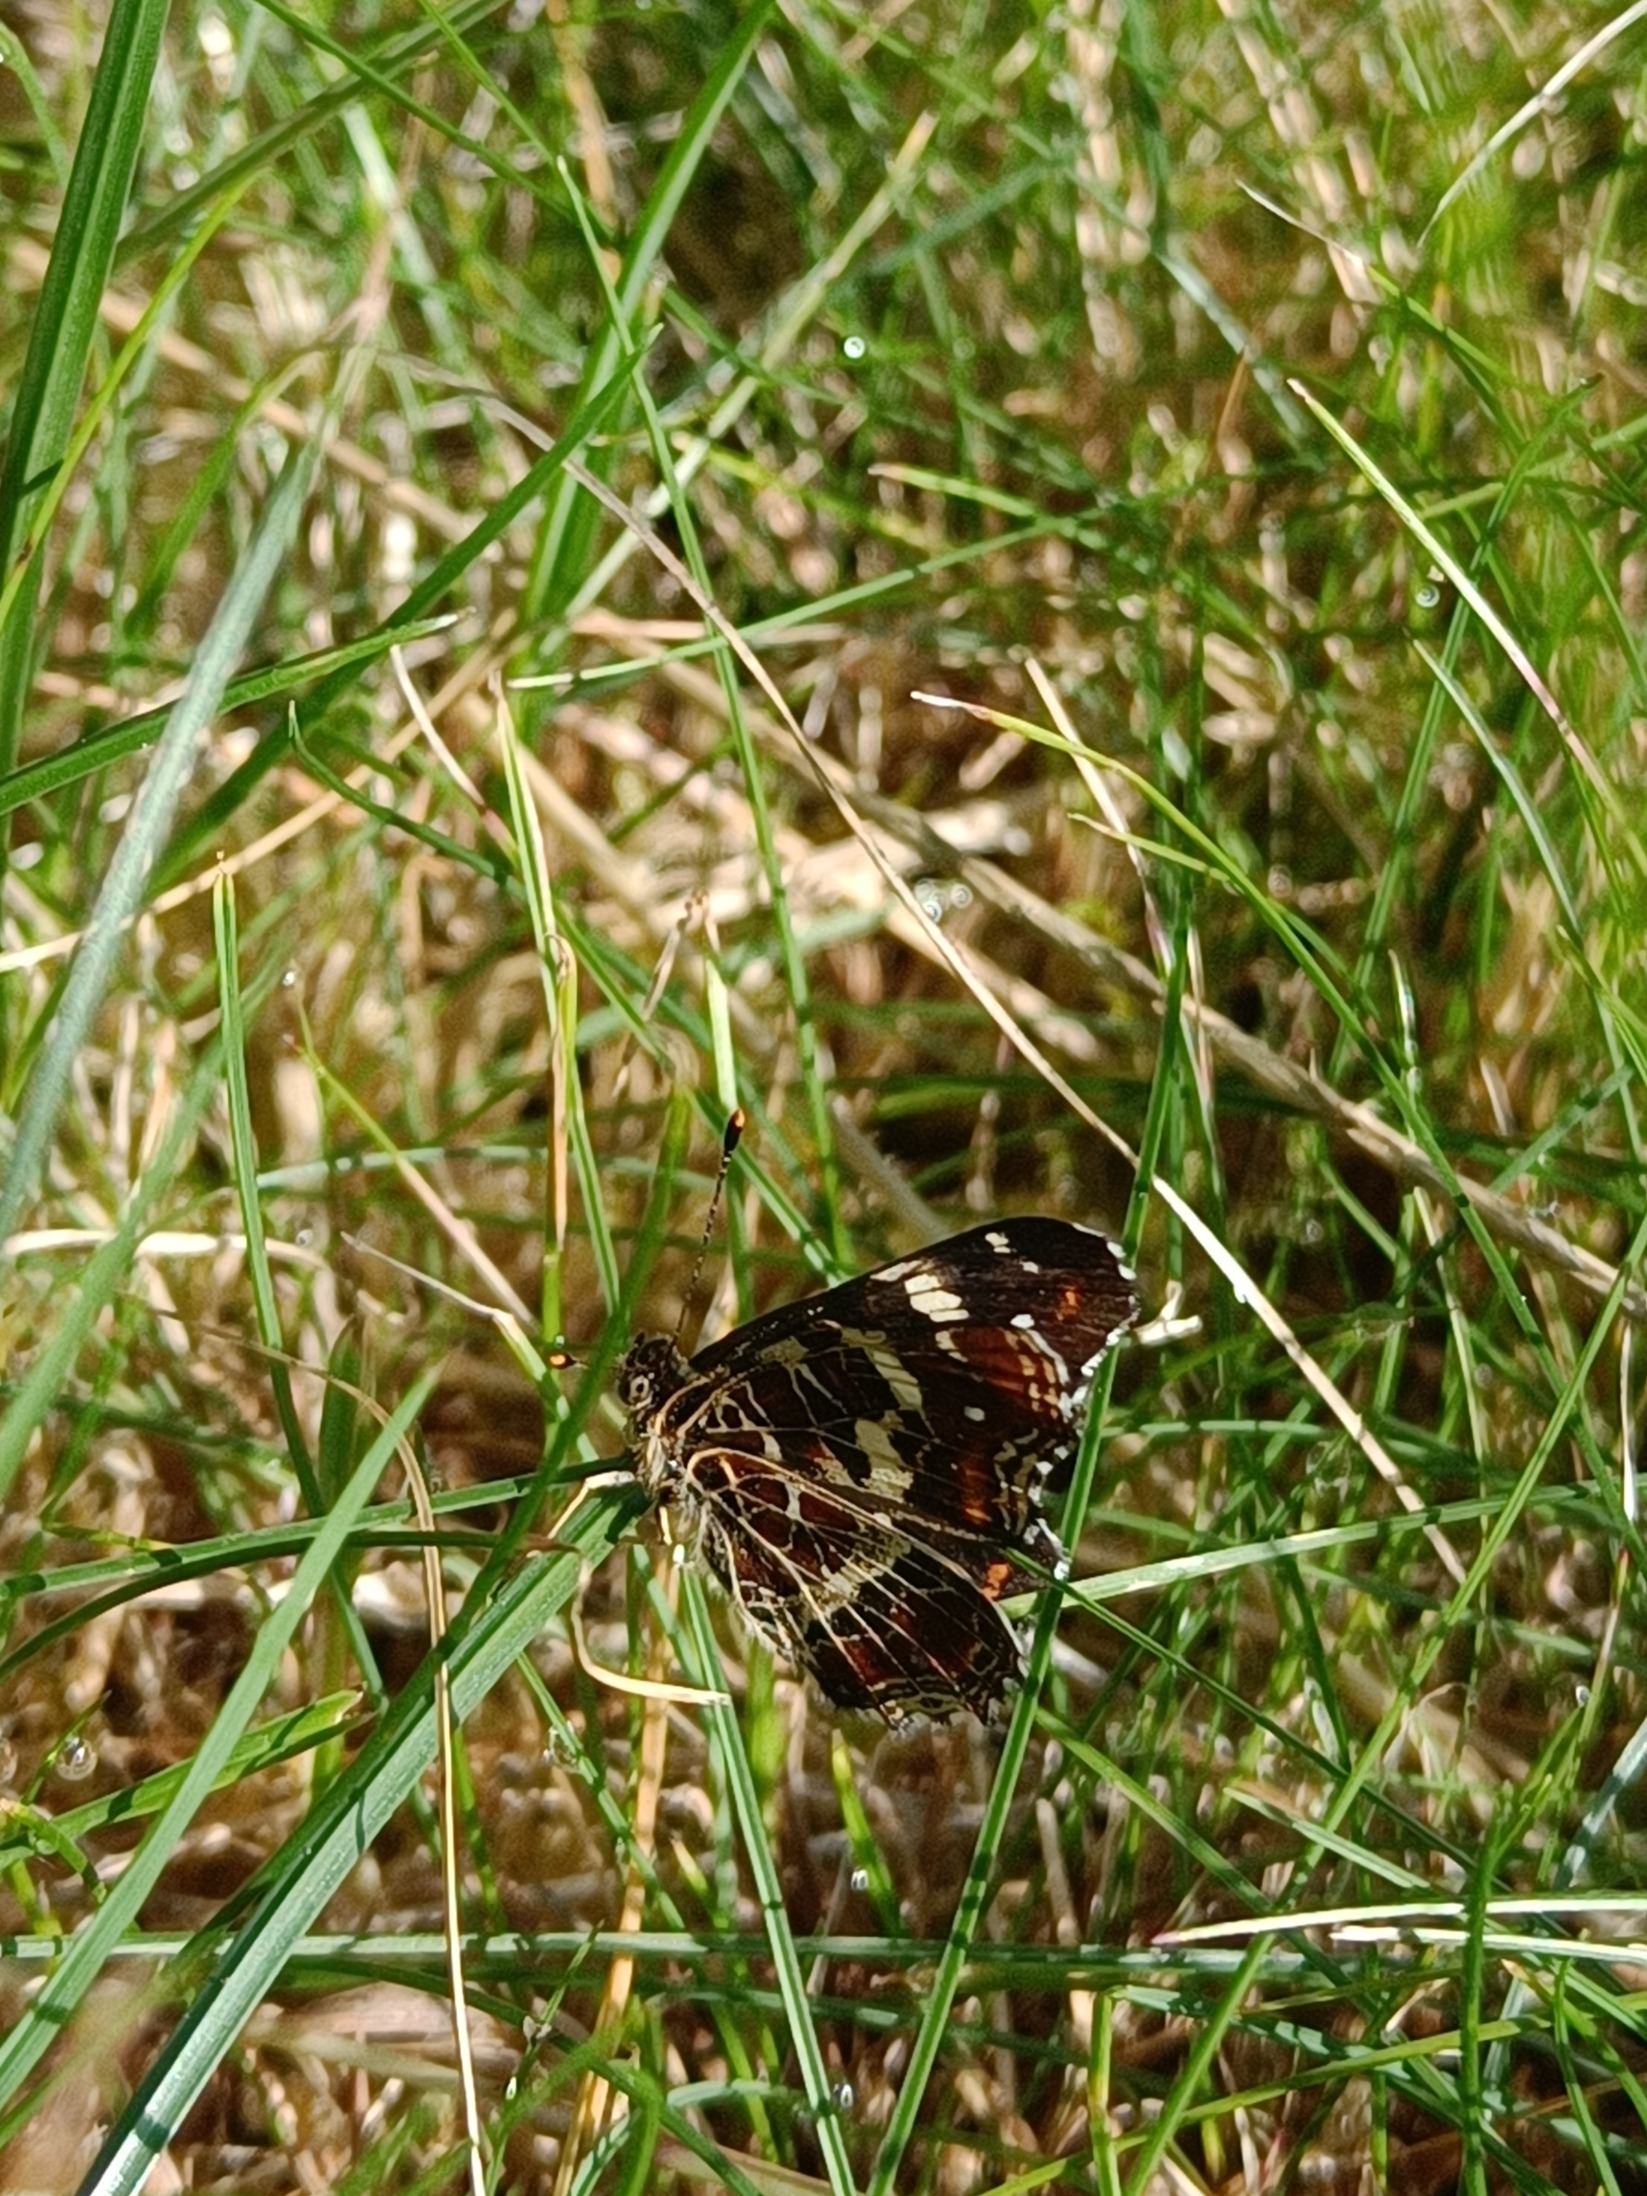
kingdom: Animalia
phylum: Arthropoda
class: Insecta
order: Lepidoptera
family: Nymphalidae
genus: Araschnia
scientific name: Araschnia levana
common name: Nældesommerfugl
